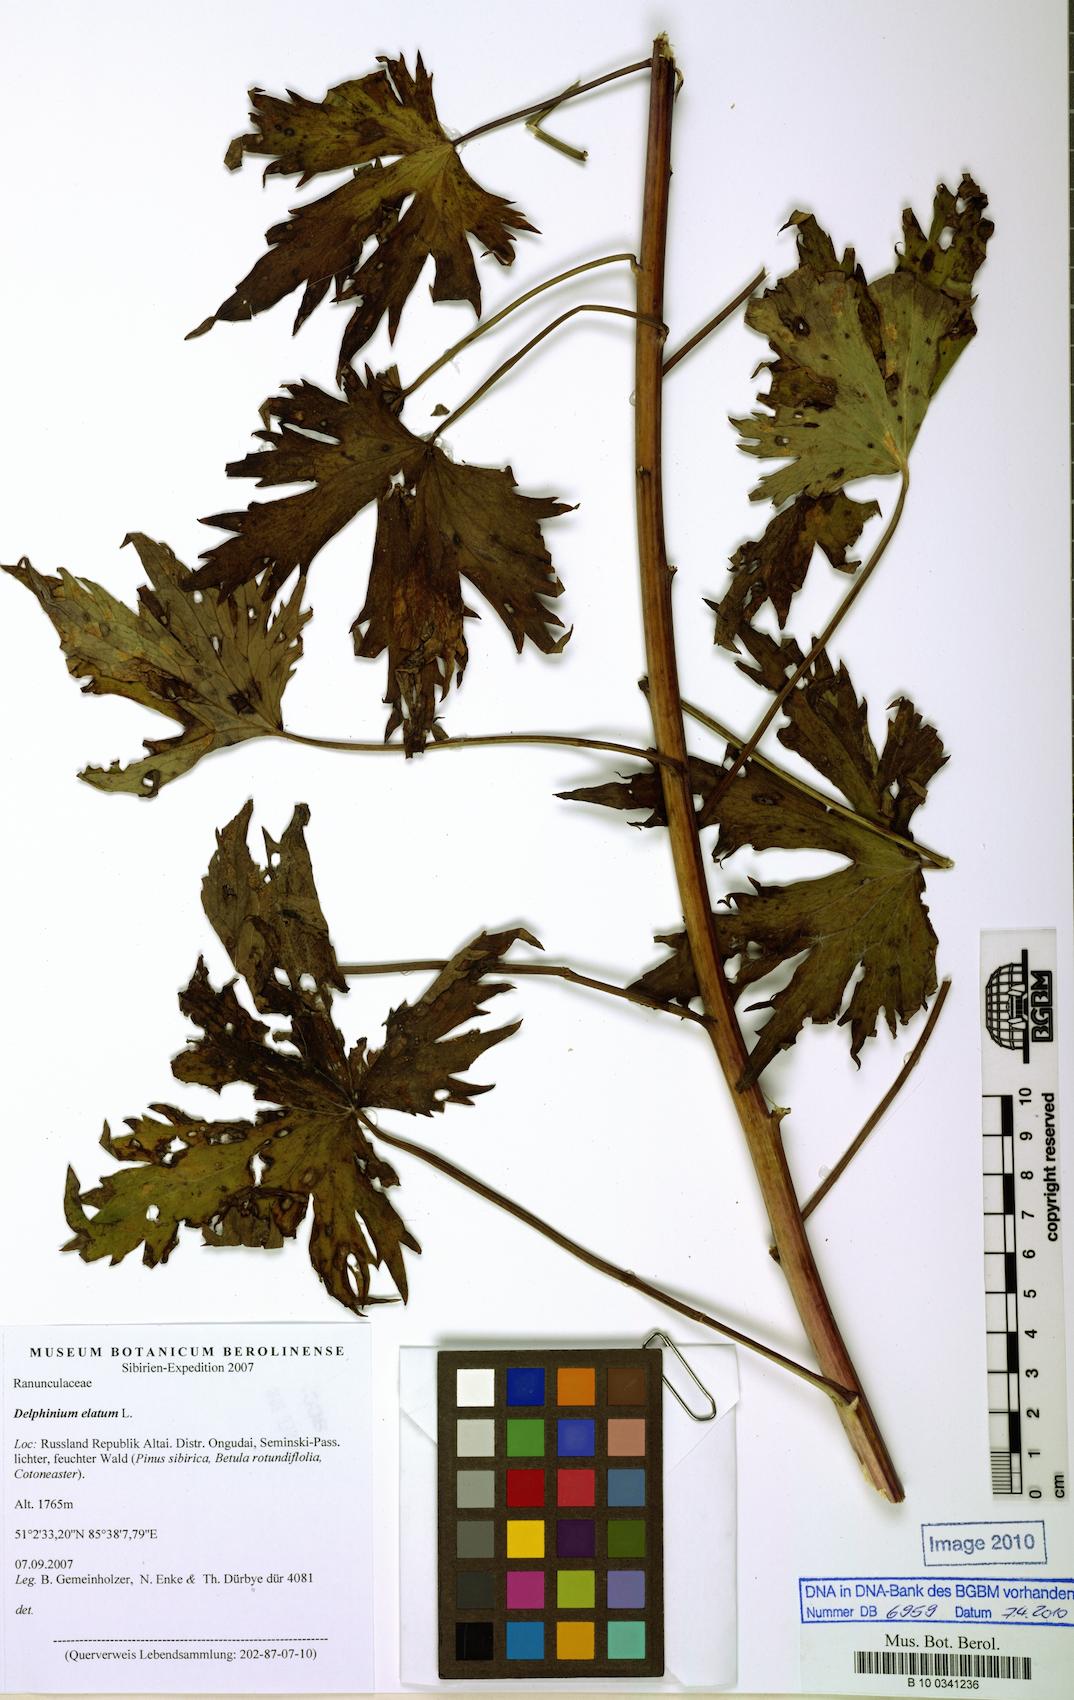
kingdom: Plantae
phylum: Tracheophyta
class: Magnoliopsida
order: Ranunculales
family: Ranunculaceae
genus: Delphinium
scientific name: Delphinium elatum
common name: Candle larkspur
